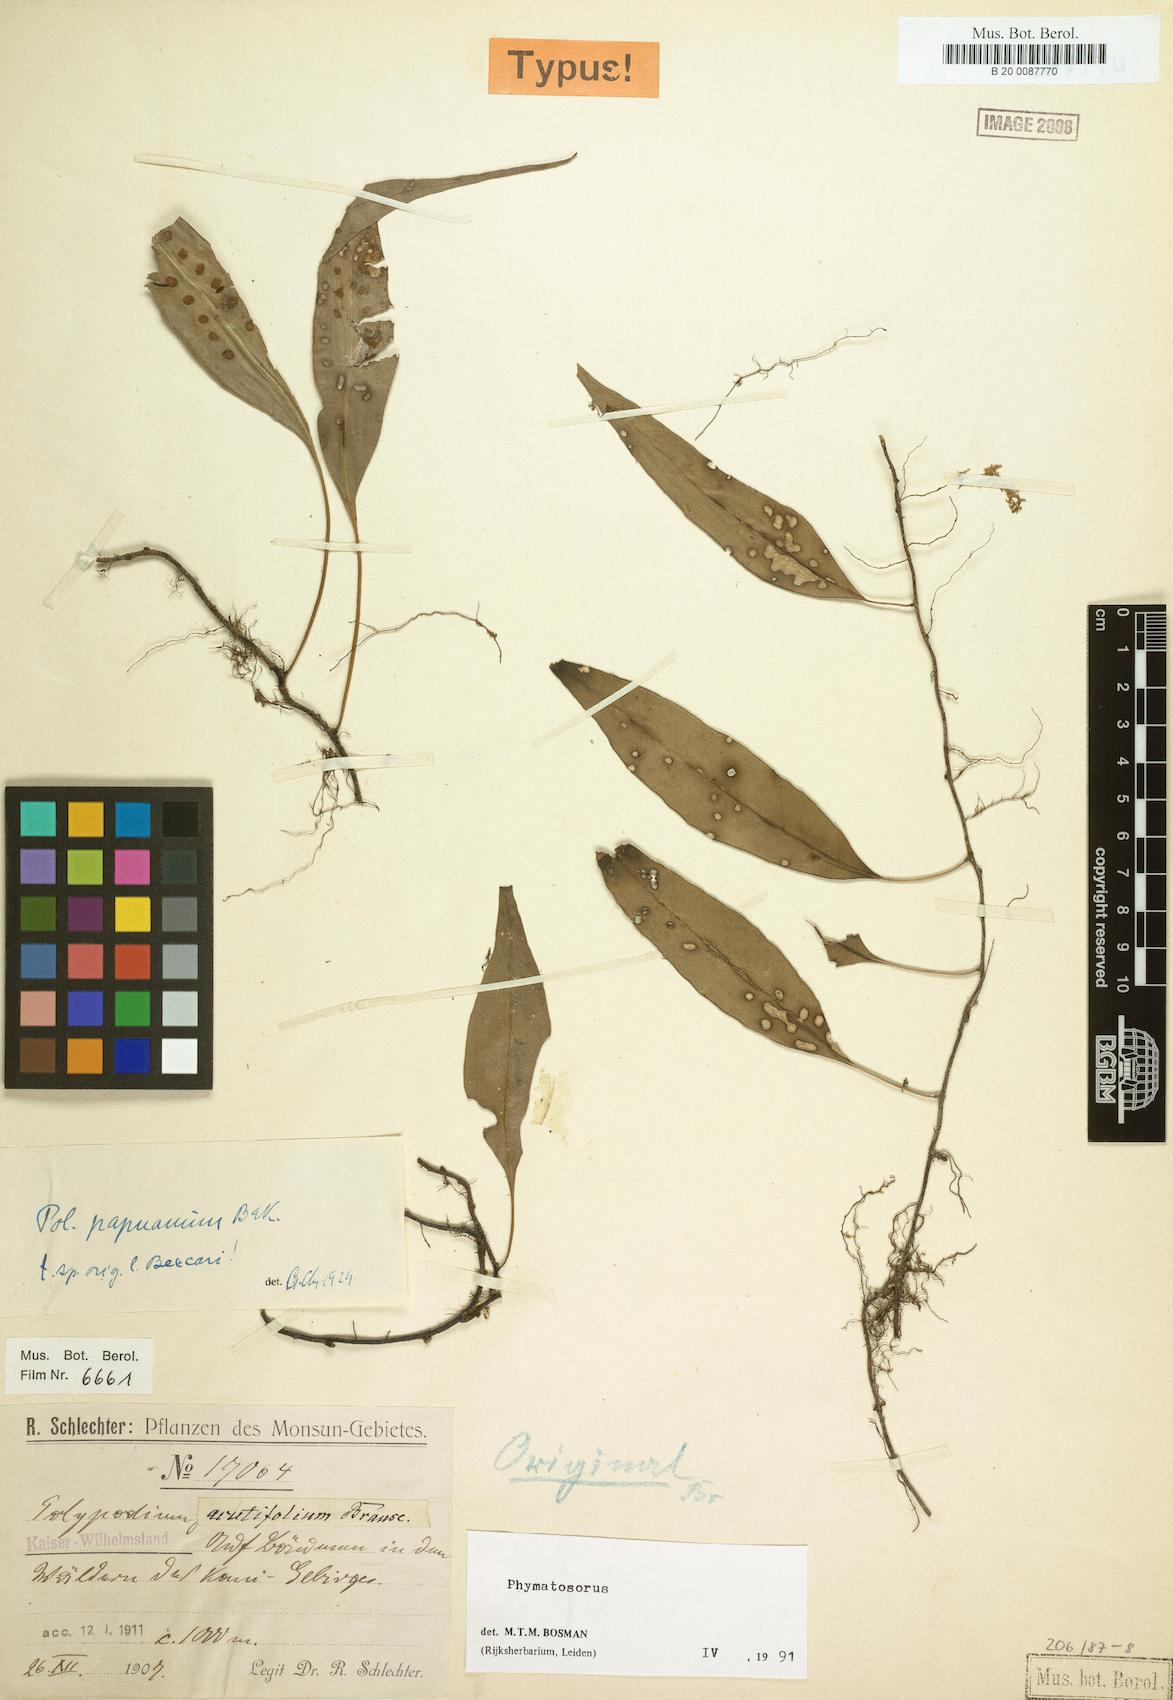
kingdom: Plantae
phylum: Tracheophyta
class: Polypodiopsida
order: Polypodiales
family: Polypodiaceae
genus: Microsorum
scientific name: Microsorum papuanum
